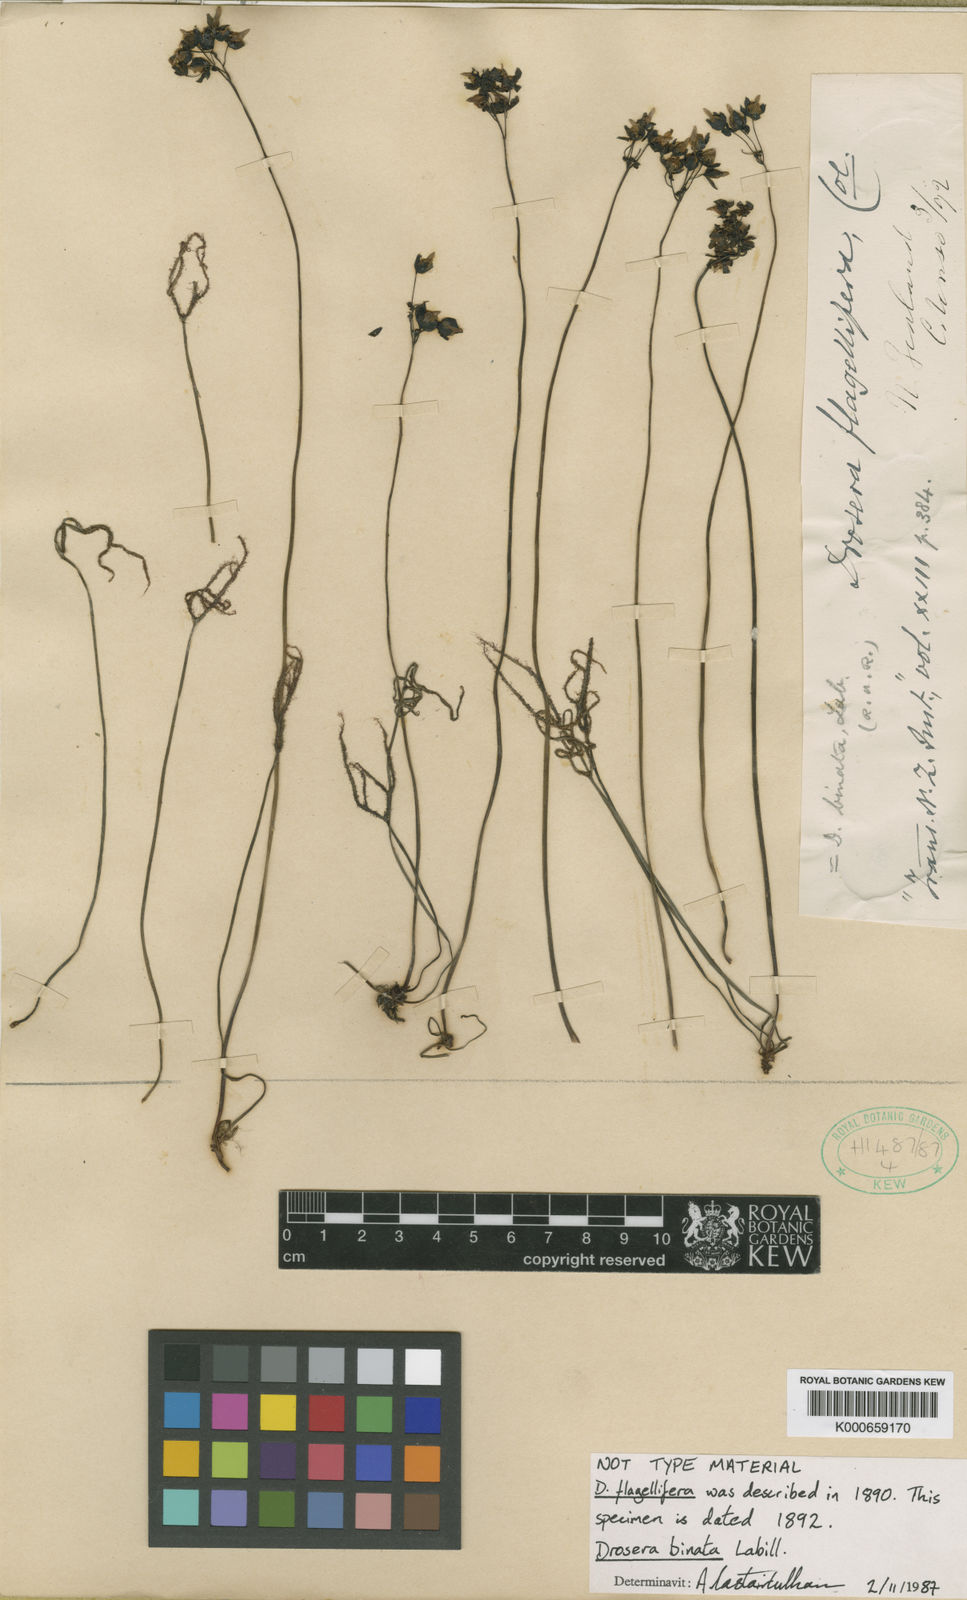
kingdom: Plantae
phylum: Tracheophyta
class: Magnoliopsida
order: Caryophyllales
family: Droseraceae
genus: Drosera
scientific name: Drosera binata
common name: Forked sundew
